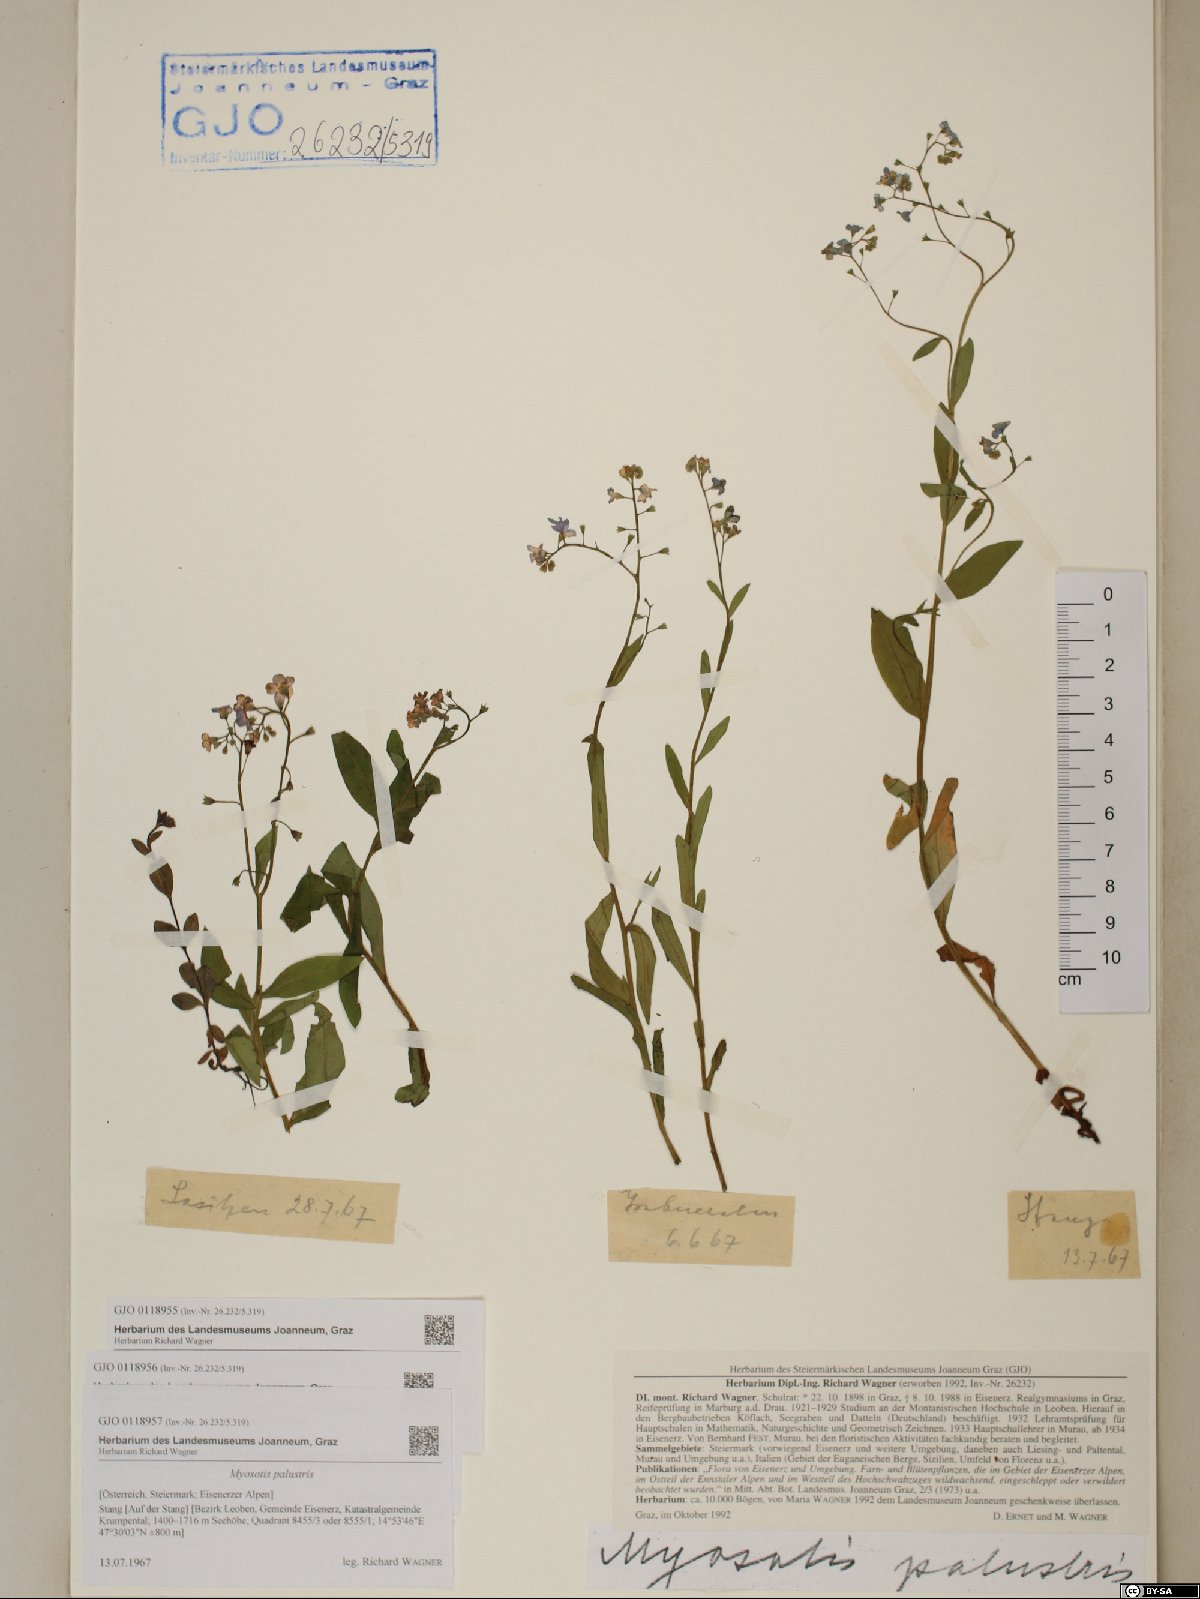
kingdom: Plantae
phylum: Tracheophyta
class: Magnoliopsida
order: Boraginales
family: Boraginaceae
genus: Myosotis
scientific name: Myosotis scorpioides
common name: Water forget-me-not
